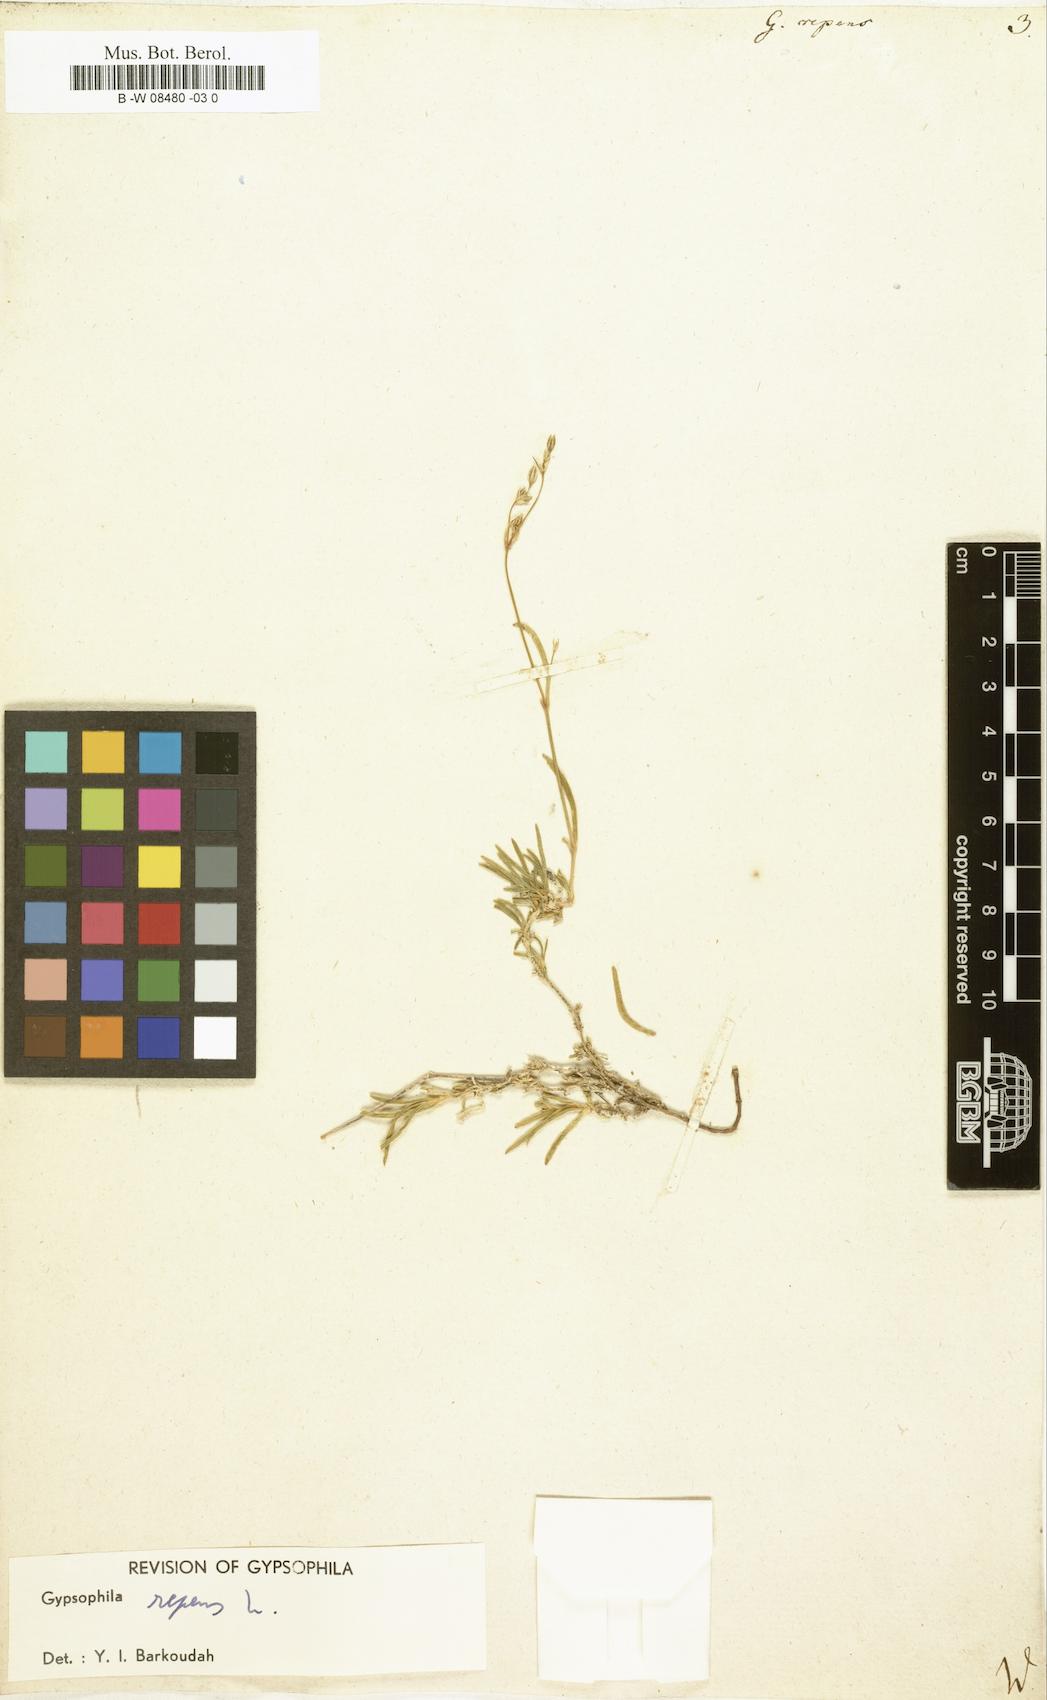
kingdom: Plantae
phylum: Tracheophyta
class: Magnoliopsida
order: Caryophyllales
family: Caryophyllaceae
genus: Gypsophila
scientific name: Gypsophila repens
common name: Creeping baby's-breath
